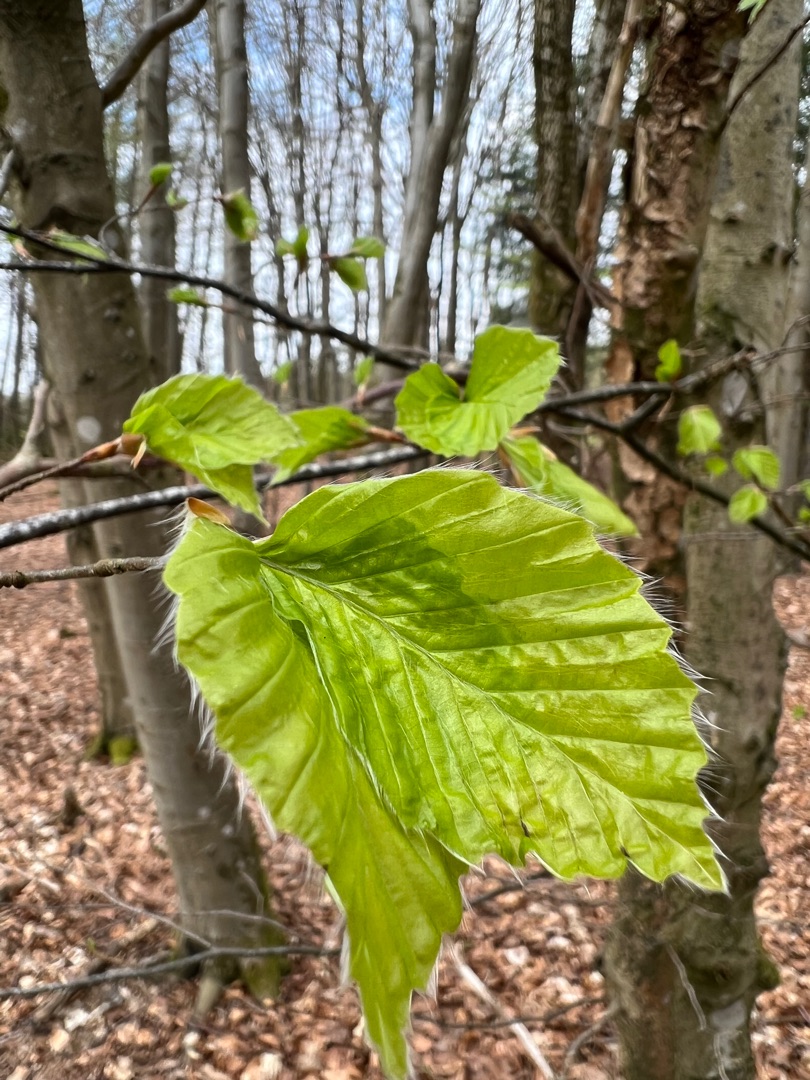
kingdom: Plantae
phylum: Tracheophyta
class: Magnoliopsida
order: Fagales
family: Fagaceae
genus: Fagus
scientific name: Fagus sylvatica
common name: Bøg
